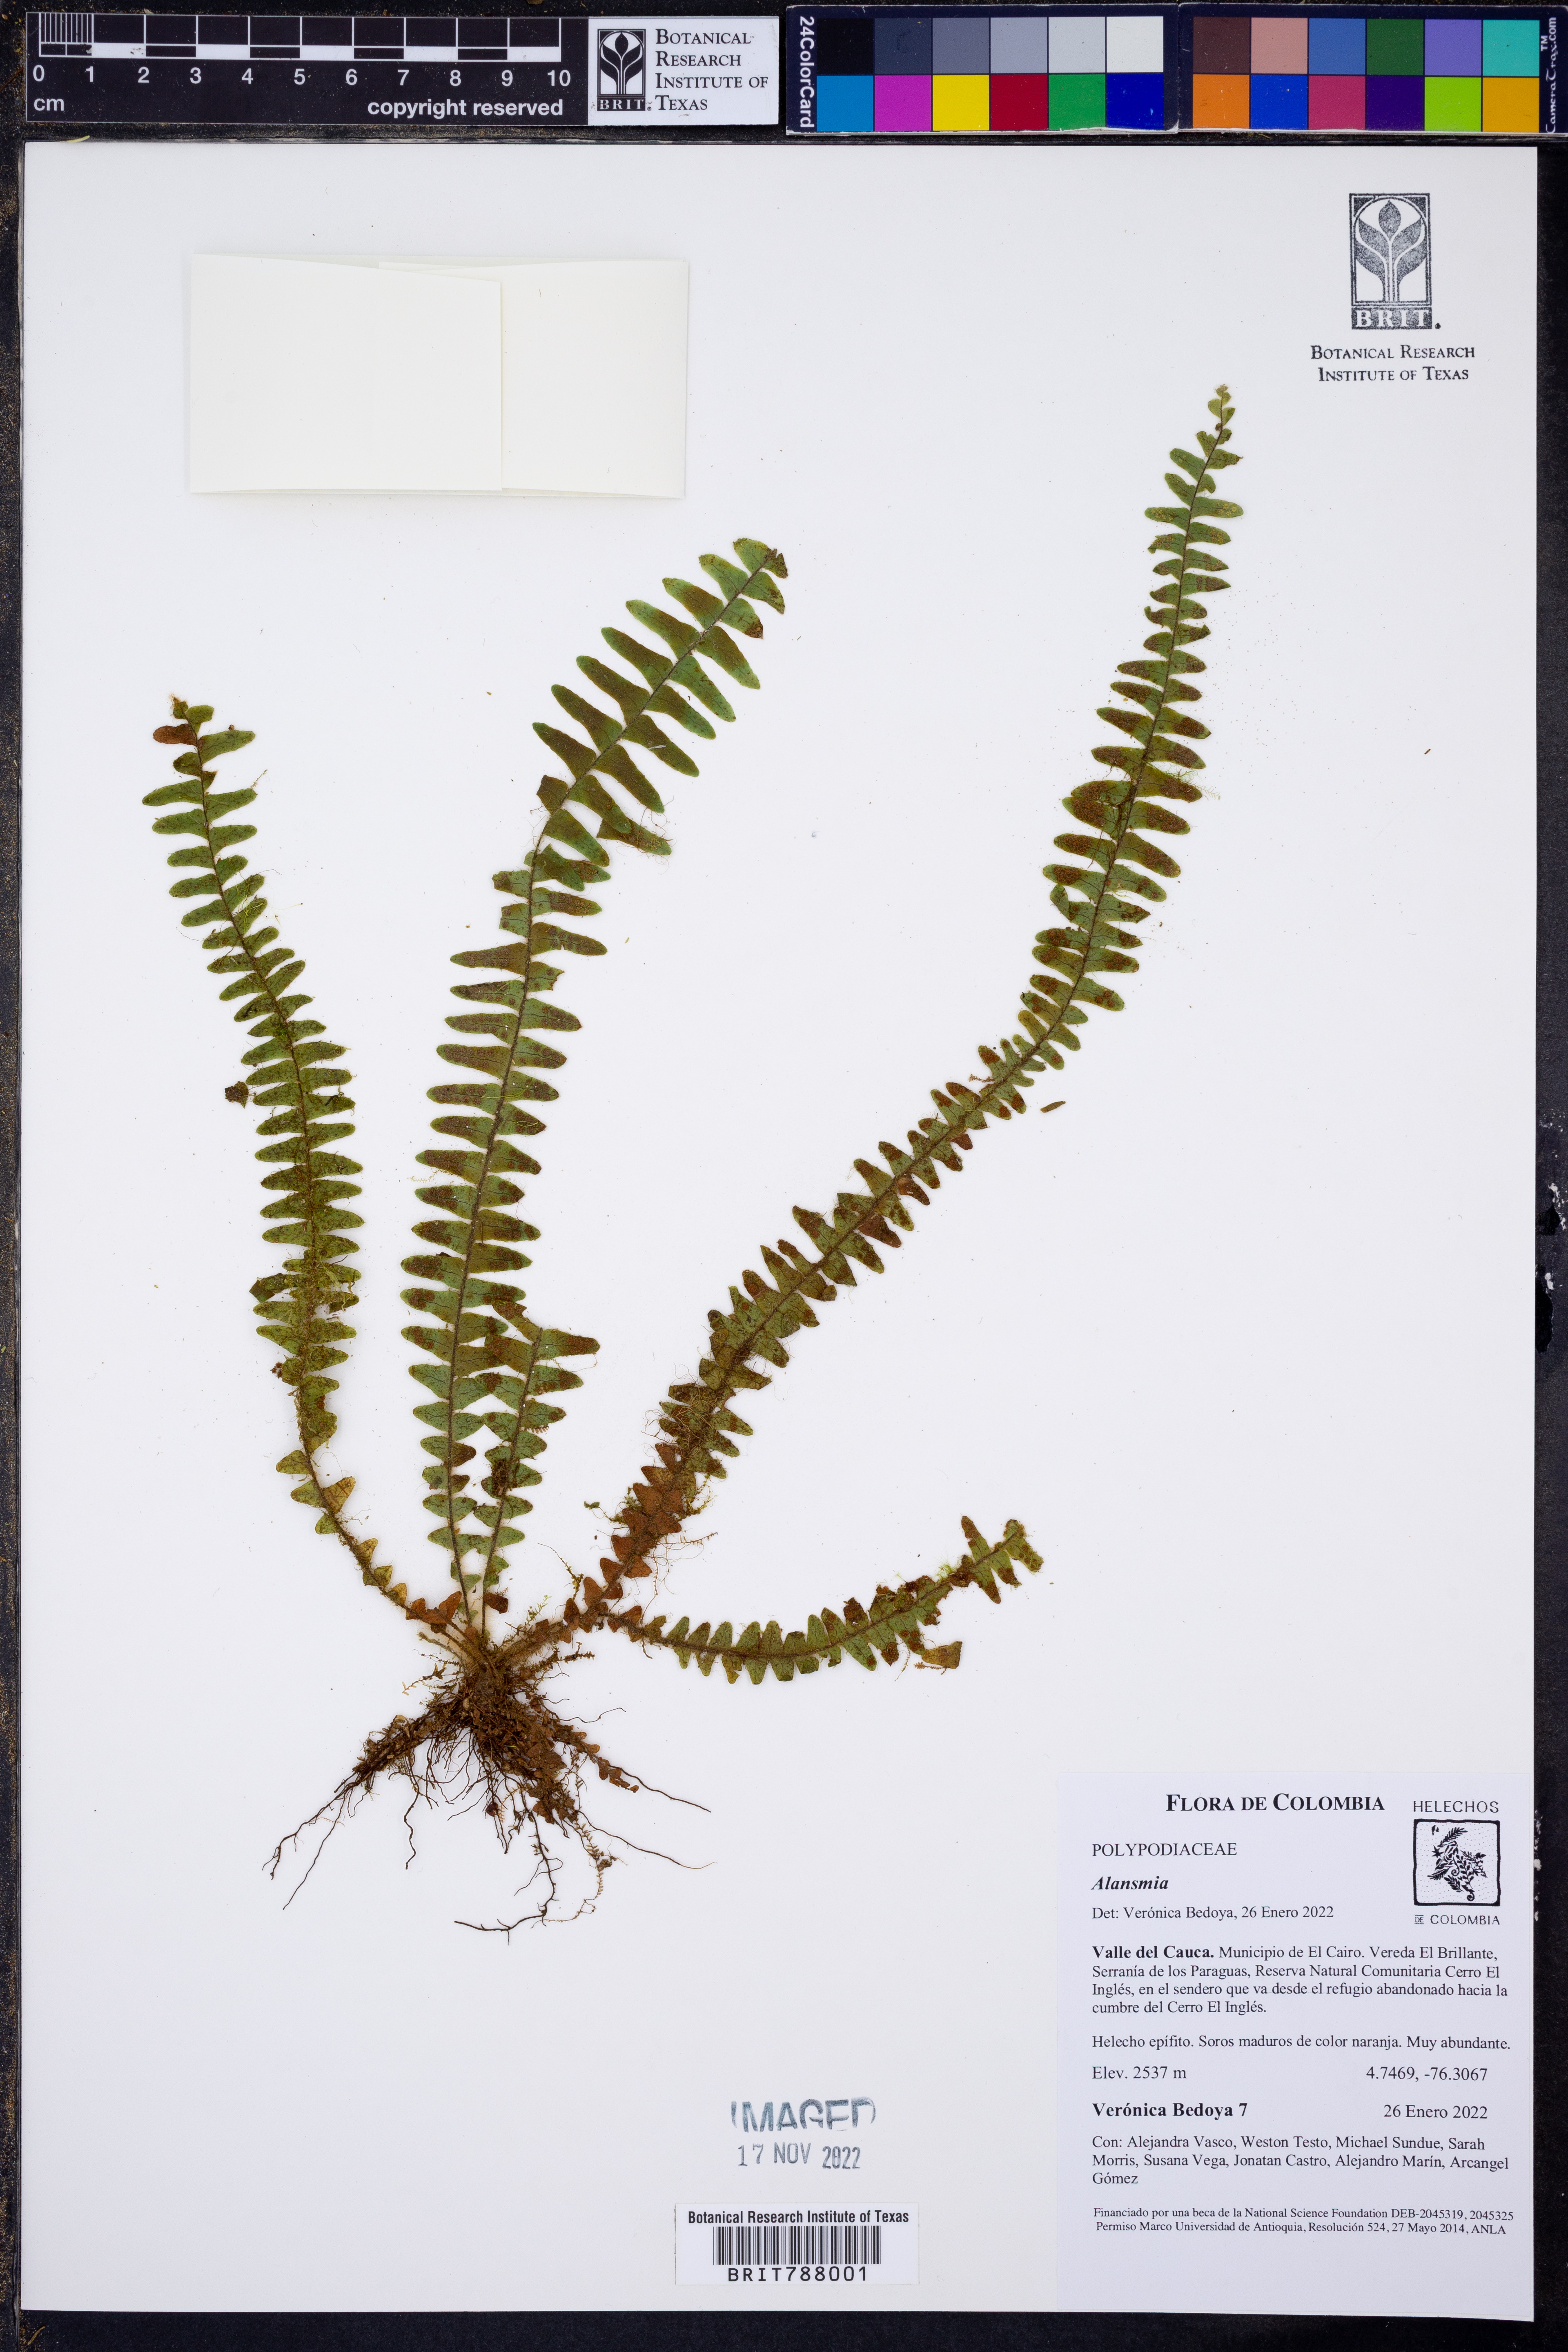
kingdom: Plantae
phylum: Tracheophyta
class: Polypodiopsida
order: Polypodiales
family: Polypodiaceae
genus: Alansmia
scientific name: Alansmia laxa
